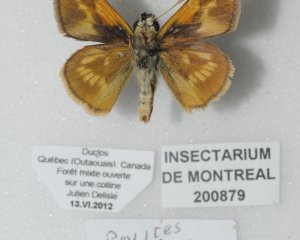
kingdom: Animalia
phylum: Arthropoda
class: Insecta
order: Lepidoptera
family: Hesperiidae
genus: Polites
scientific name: Polites
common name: Long Dash Skipper
